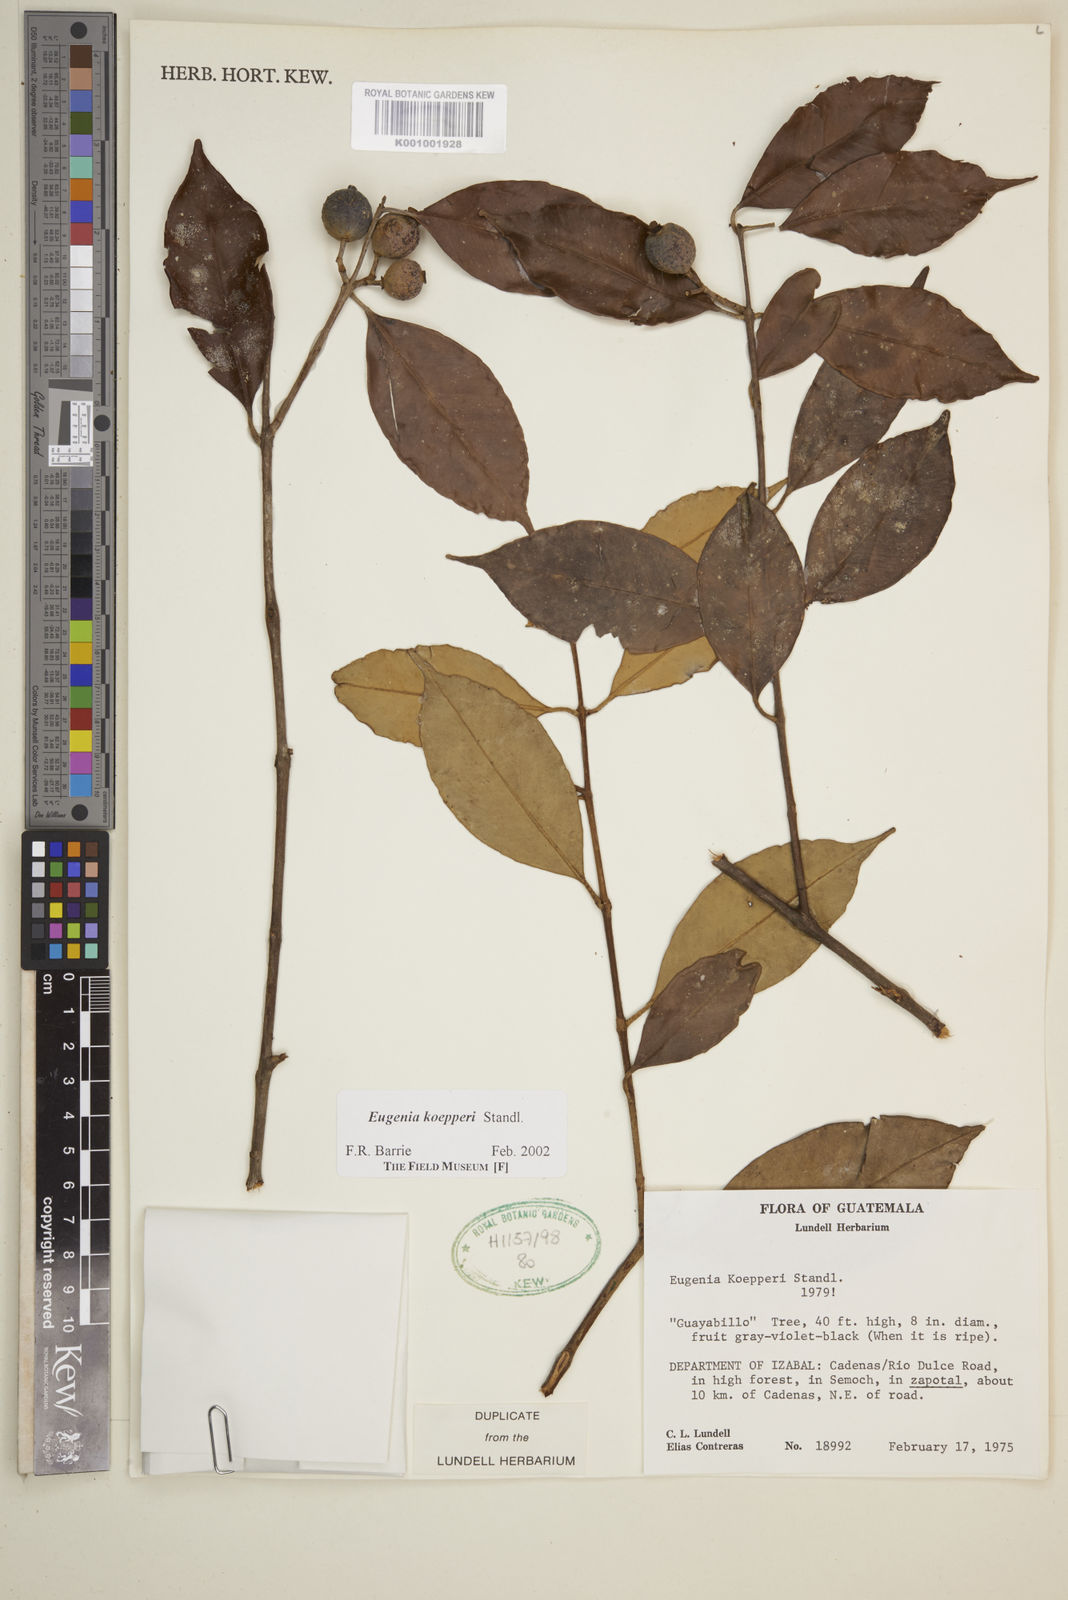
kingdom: Plantae
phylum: Tracheophyta
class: Magnoliopsida
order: Myrtales
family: Myrtaceae
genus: Eugenia
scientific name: Eugenia koepperi
